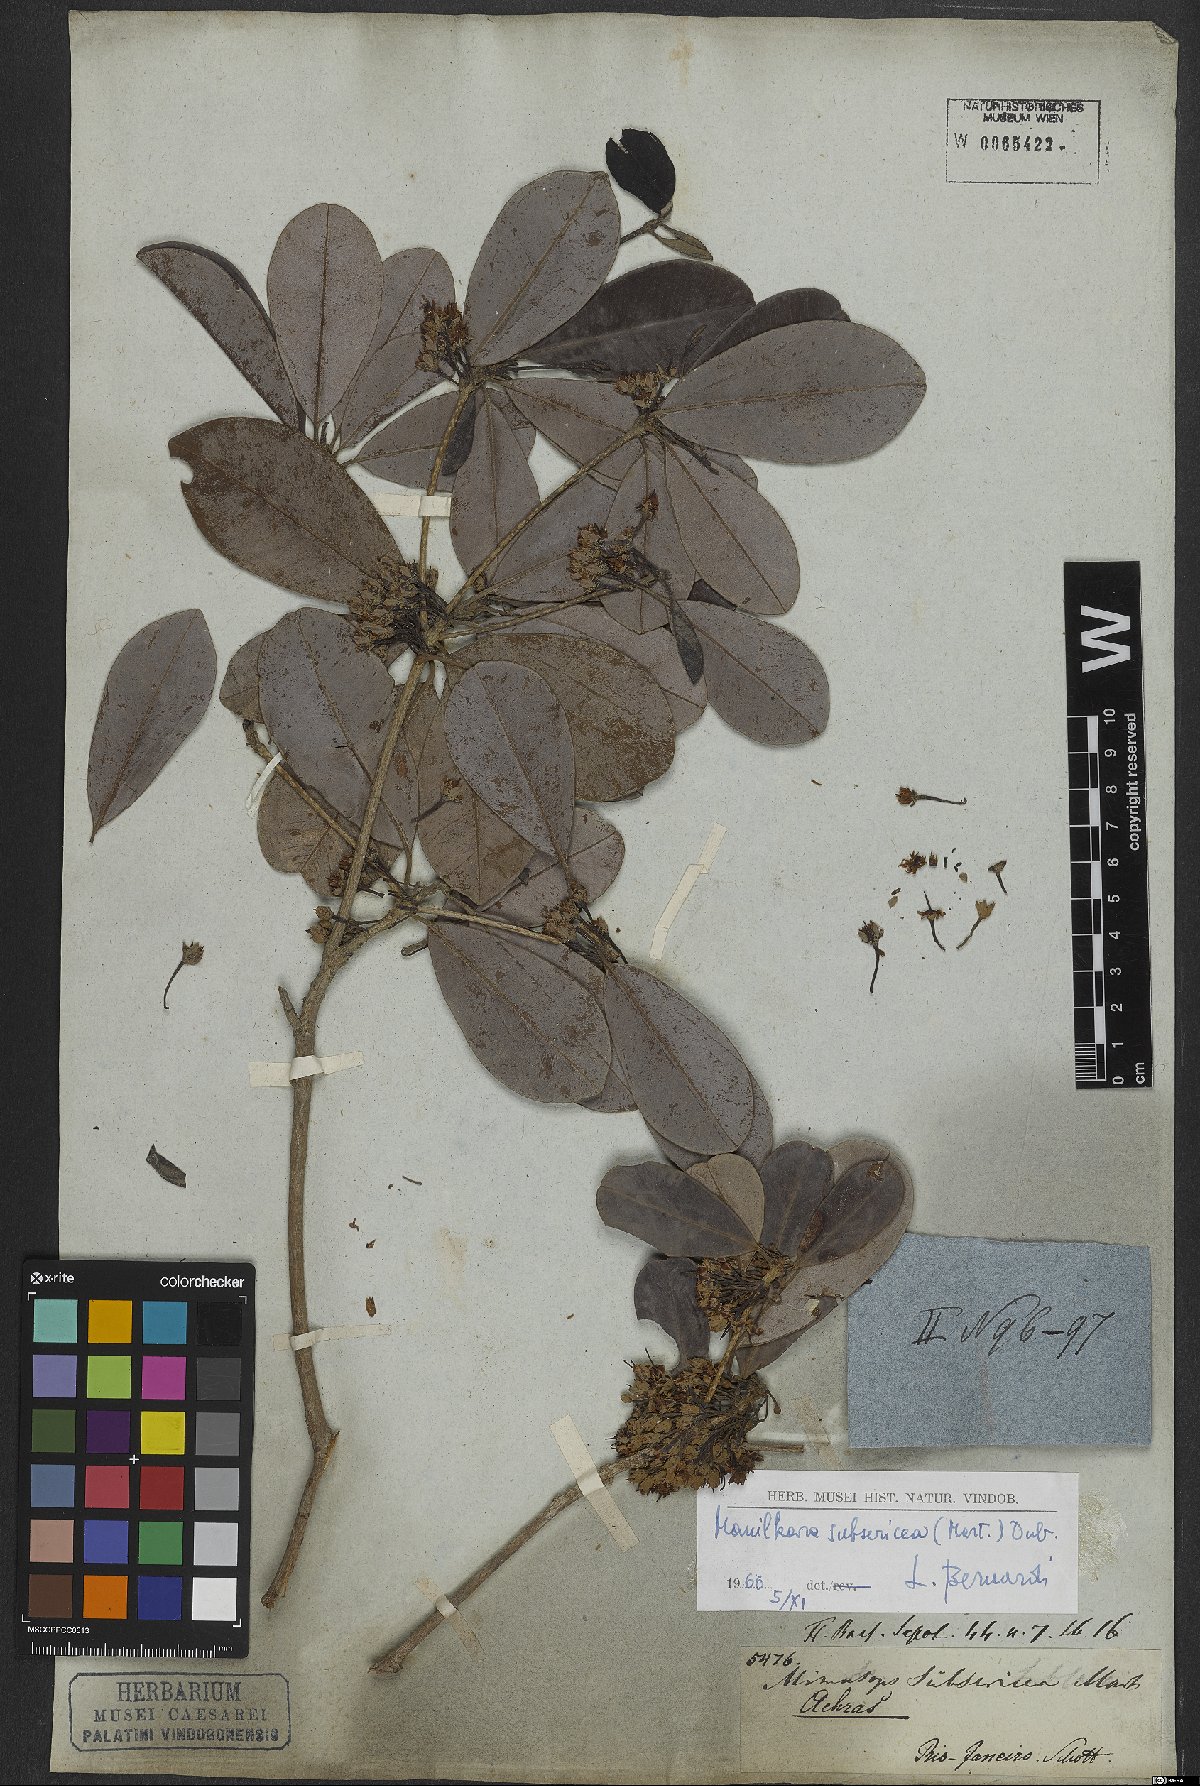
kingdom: Plantae
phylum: Tracheophyta
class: Magnoliopsida
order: Ericales
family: Sapotaceae
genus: Manilkara
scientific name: Manilkara subsericea
